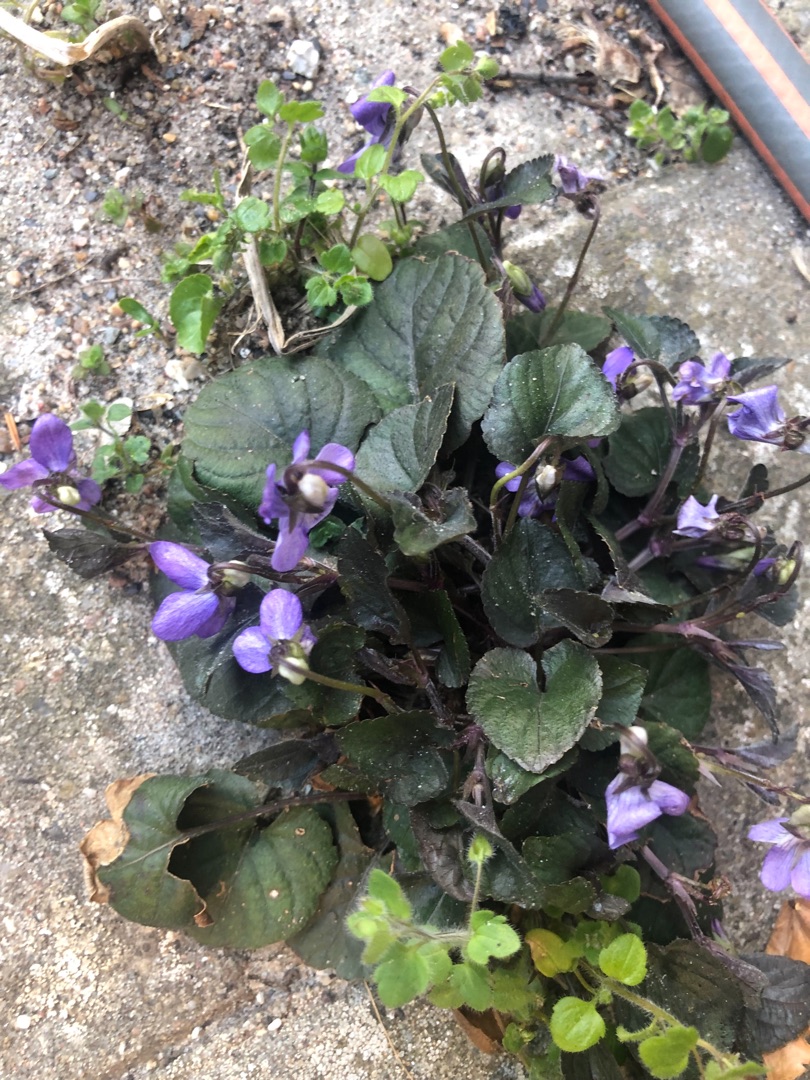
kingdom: Plantae
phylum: Tracheophyta
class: Magnoliopsida
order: Malpighiales
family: Violaceae
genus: Viola
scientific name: Viola riviniana
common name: Krat-viol
